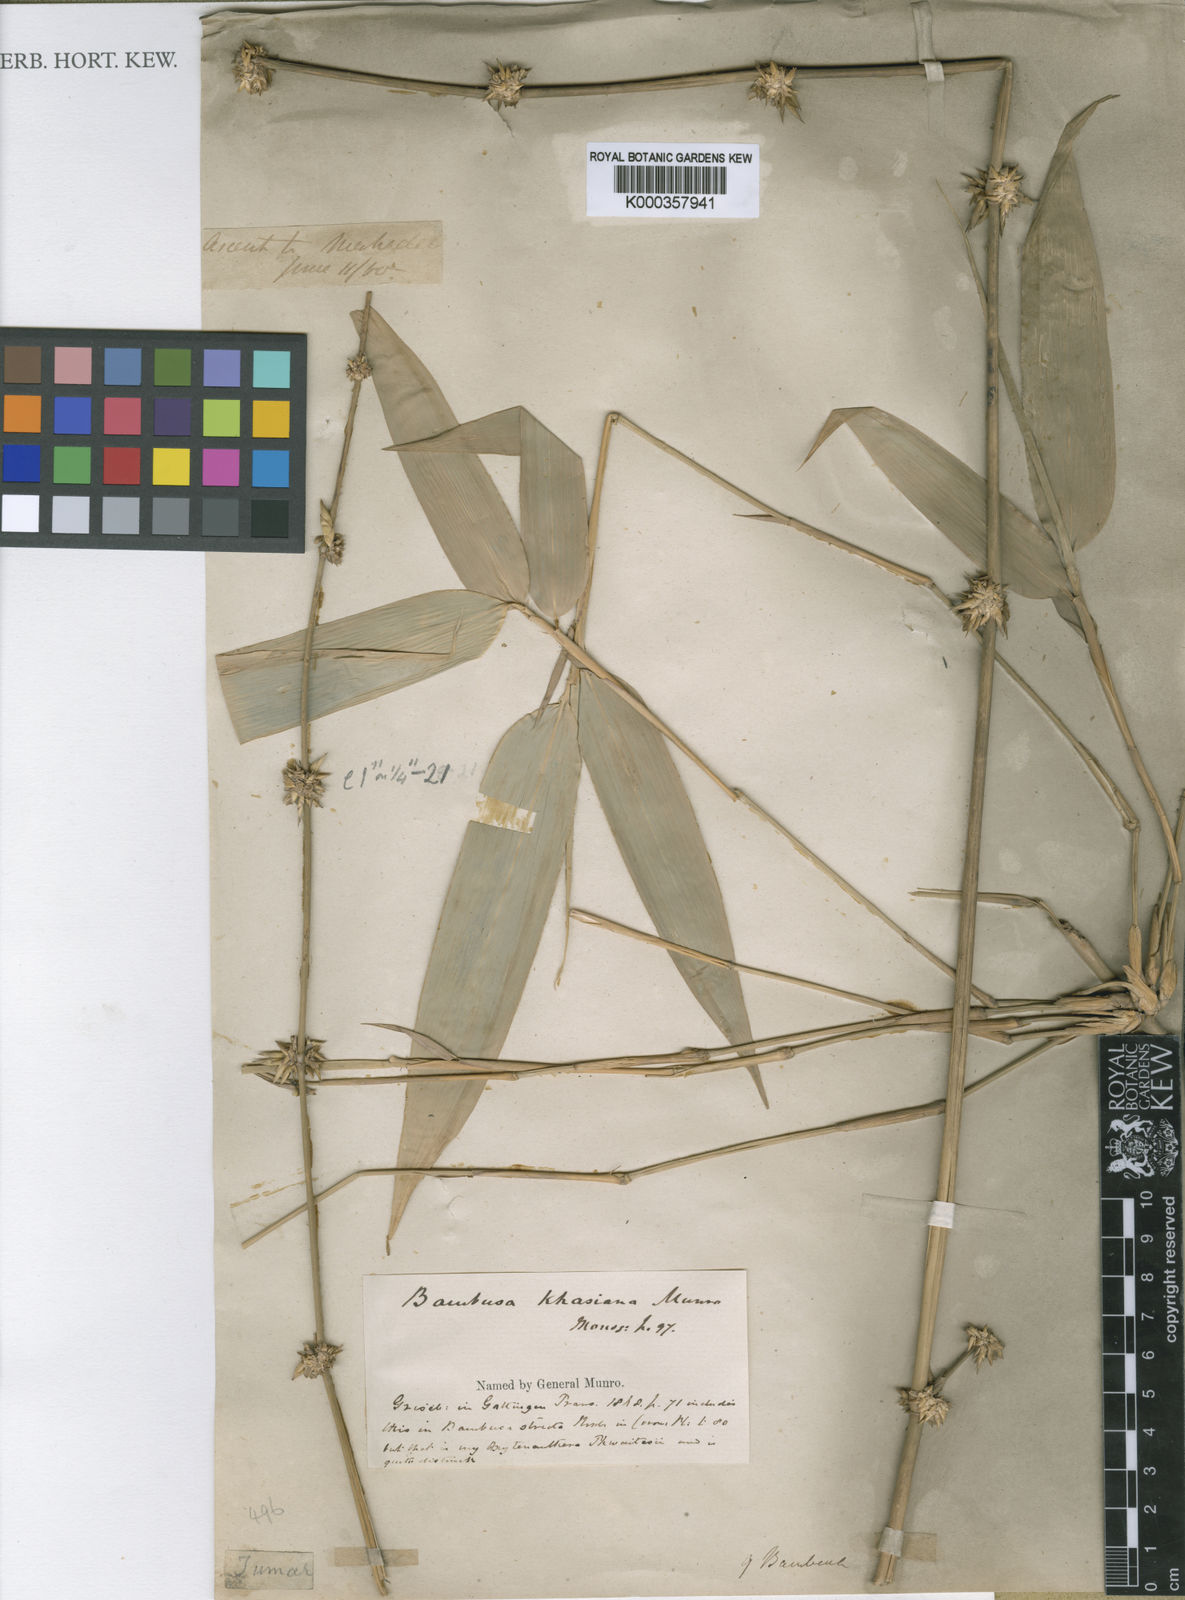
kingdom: Plantae
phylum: Tracheophyta
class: Liliopsida
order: Poales
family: Poaceae
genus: Bambusa
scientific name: Bambusa khasiana
